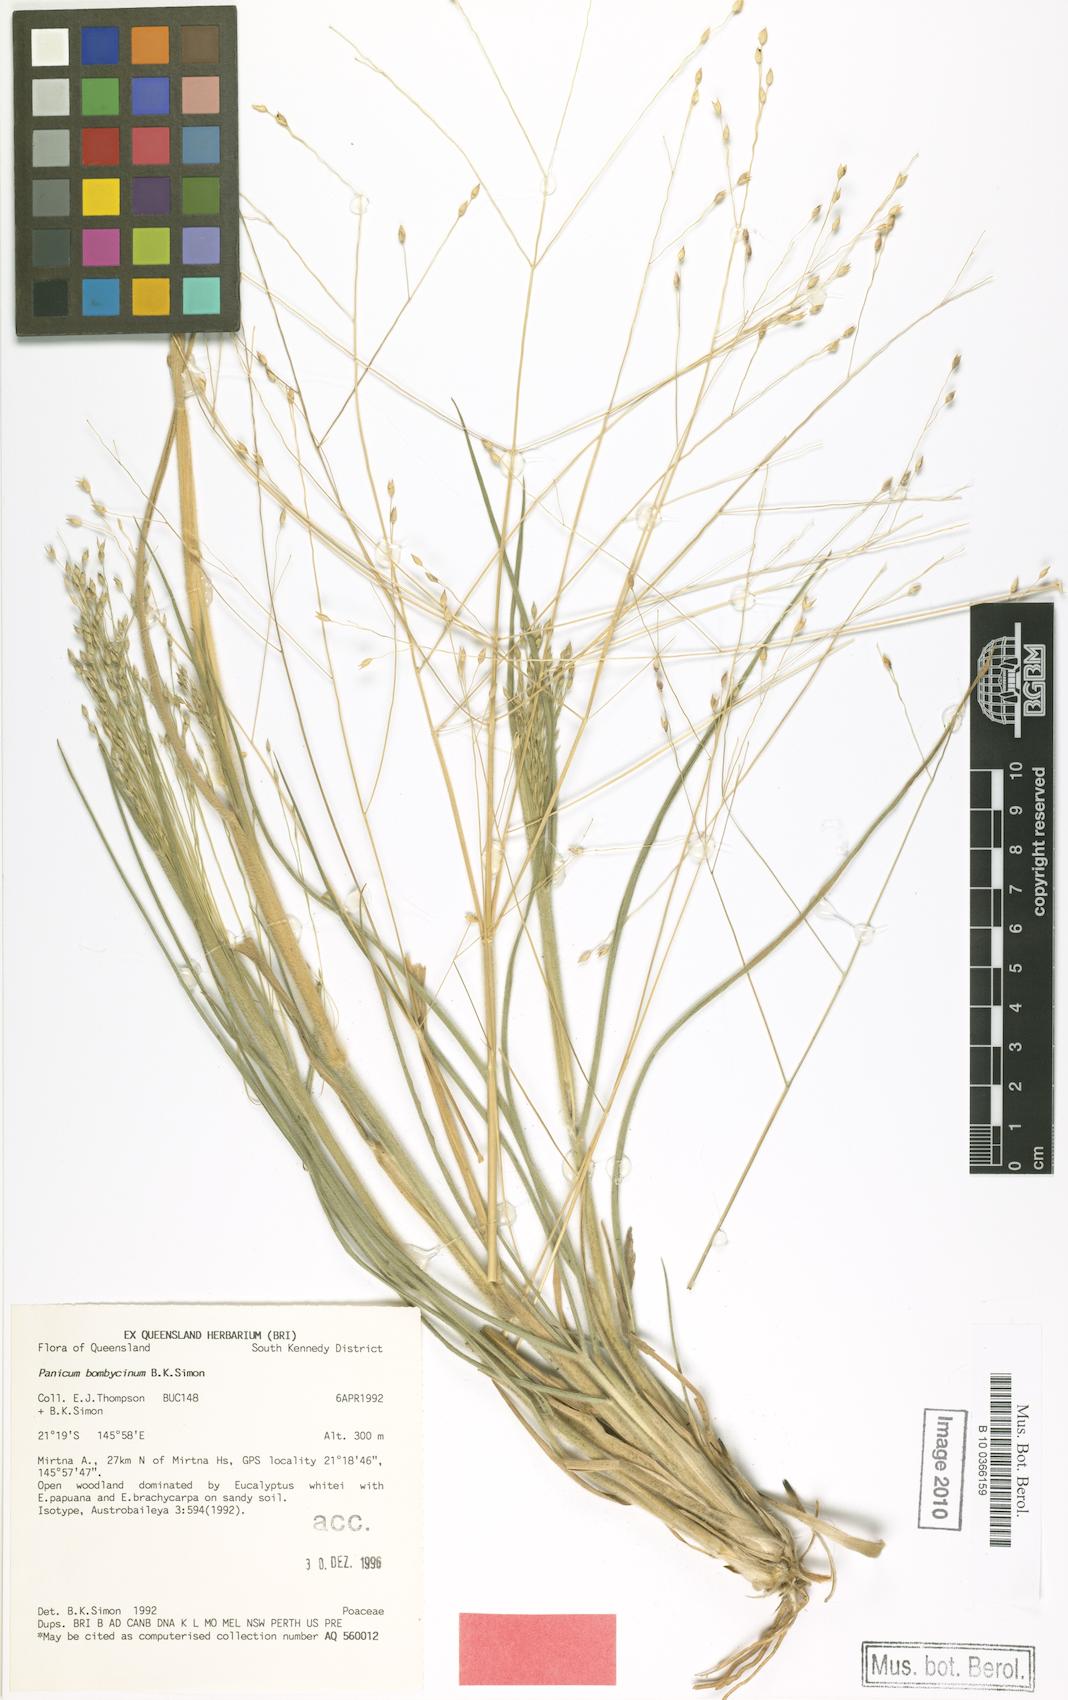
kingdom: Plantae
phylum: Tracheophyta
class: Liliopsida
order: Poales
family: Poaceae
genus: Panicum
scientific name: Panicum bombycinum
